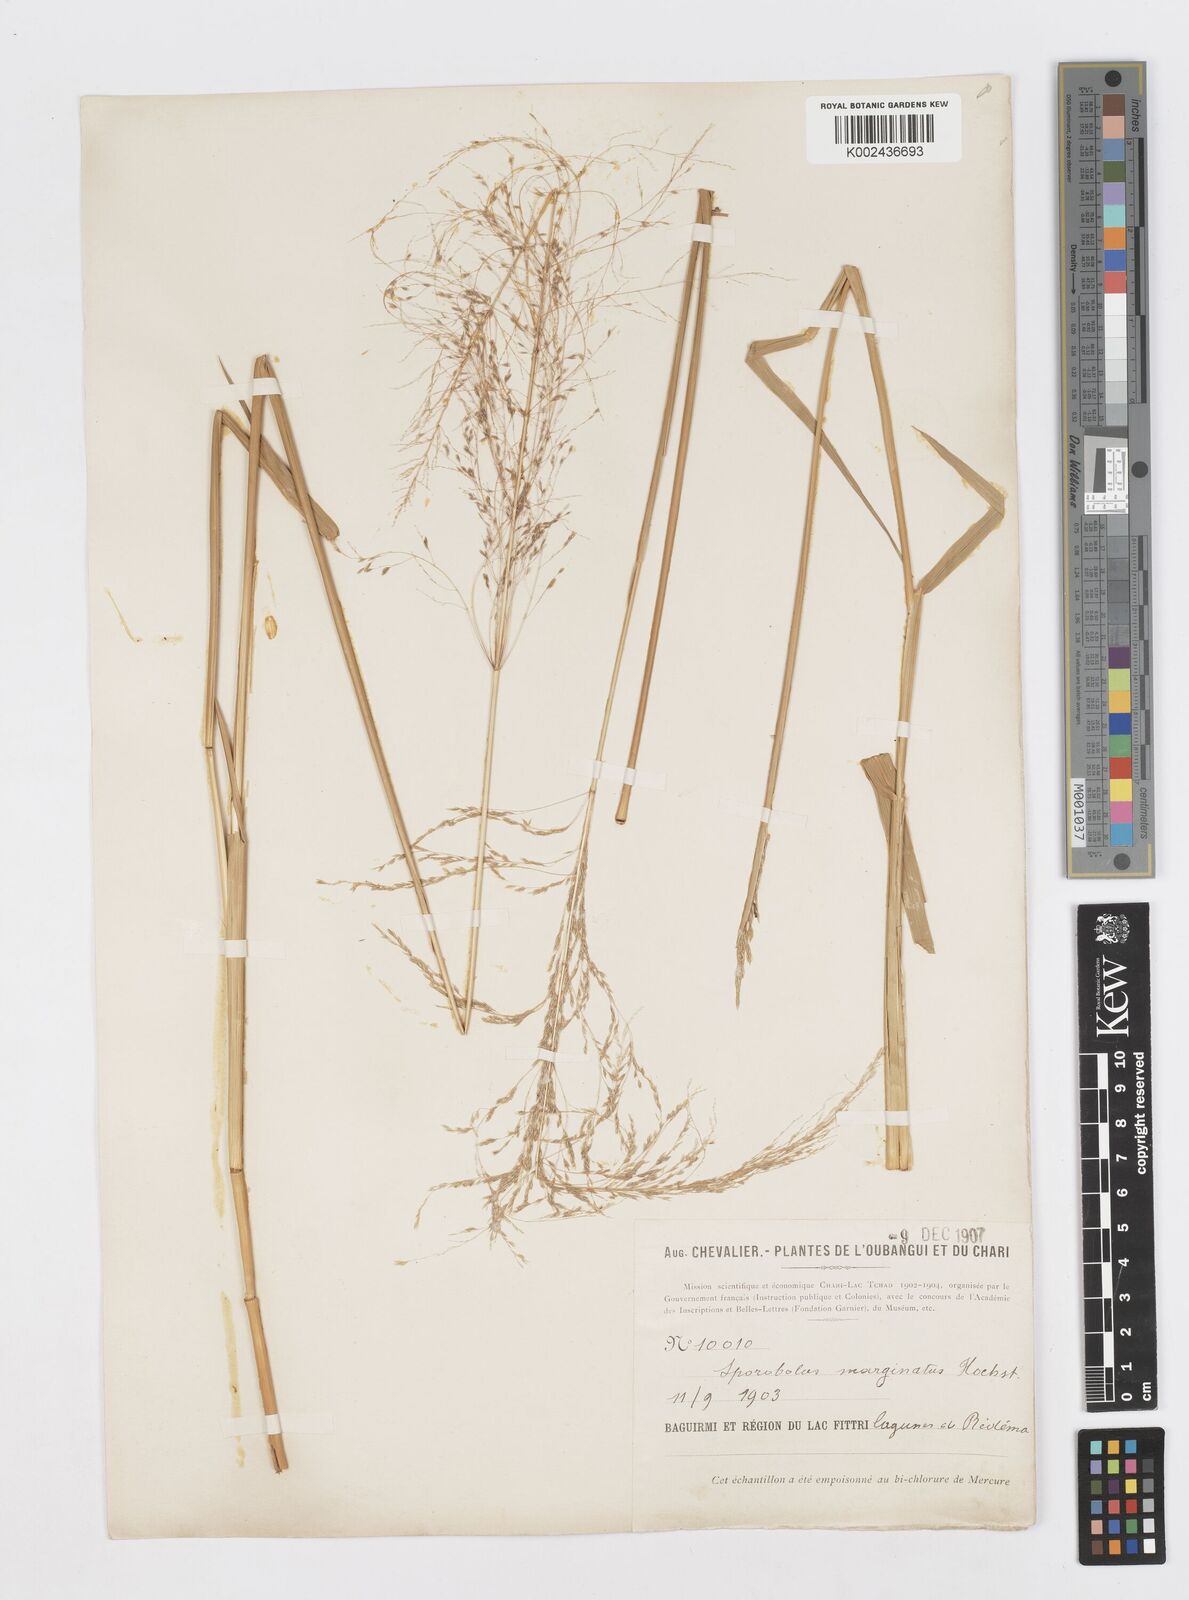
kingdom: Plantae
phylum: Tracheophyta
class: Liliopsida
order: Poales
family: Poaceae
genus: Sporobolus
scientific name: Sporobolus ioclados
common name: Pan dropseed
